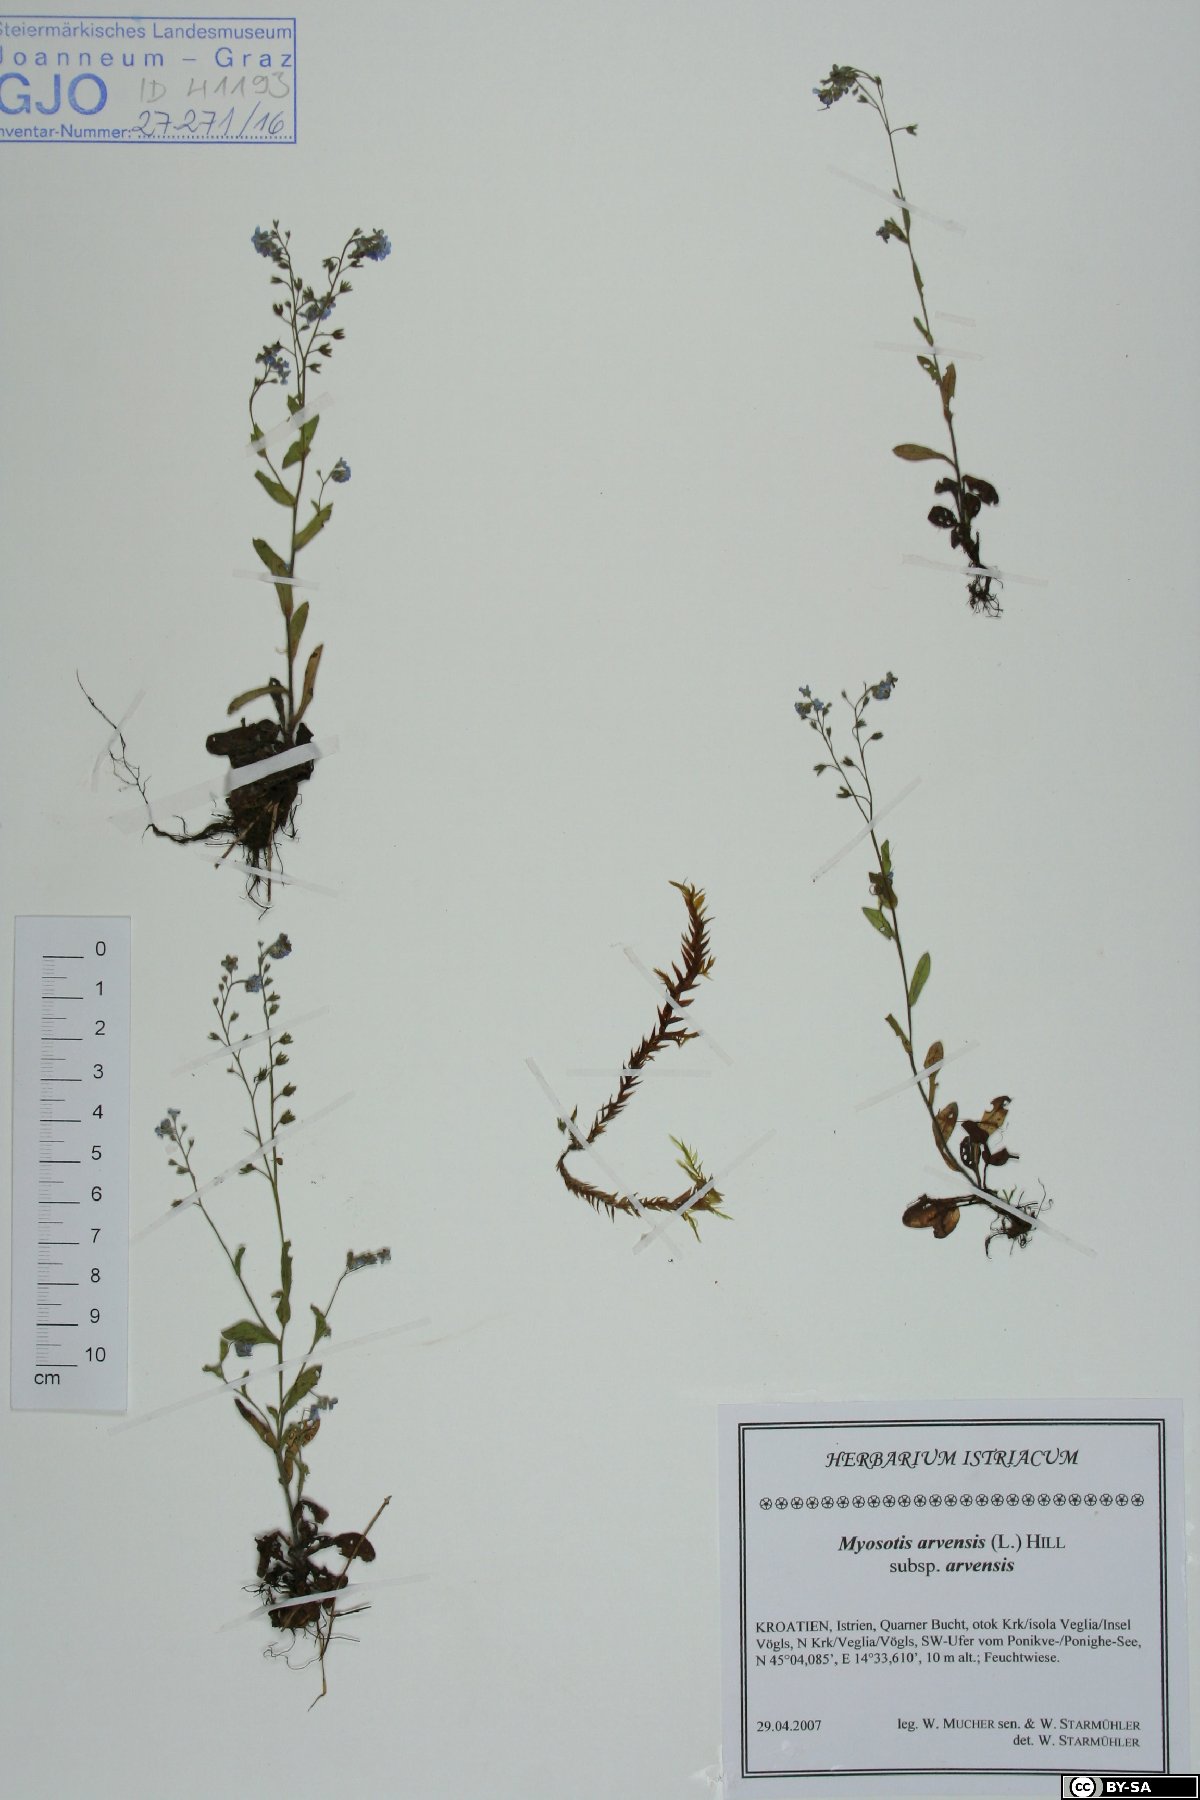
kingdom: Plantae
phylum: Tracheophyta
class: Magnoliopsida
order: Boraginales
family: Boraginaceae
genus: Myosotis
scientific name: Myosotis arvensis
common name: Field forget-me-not
